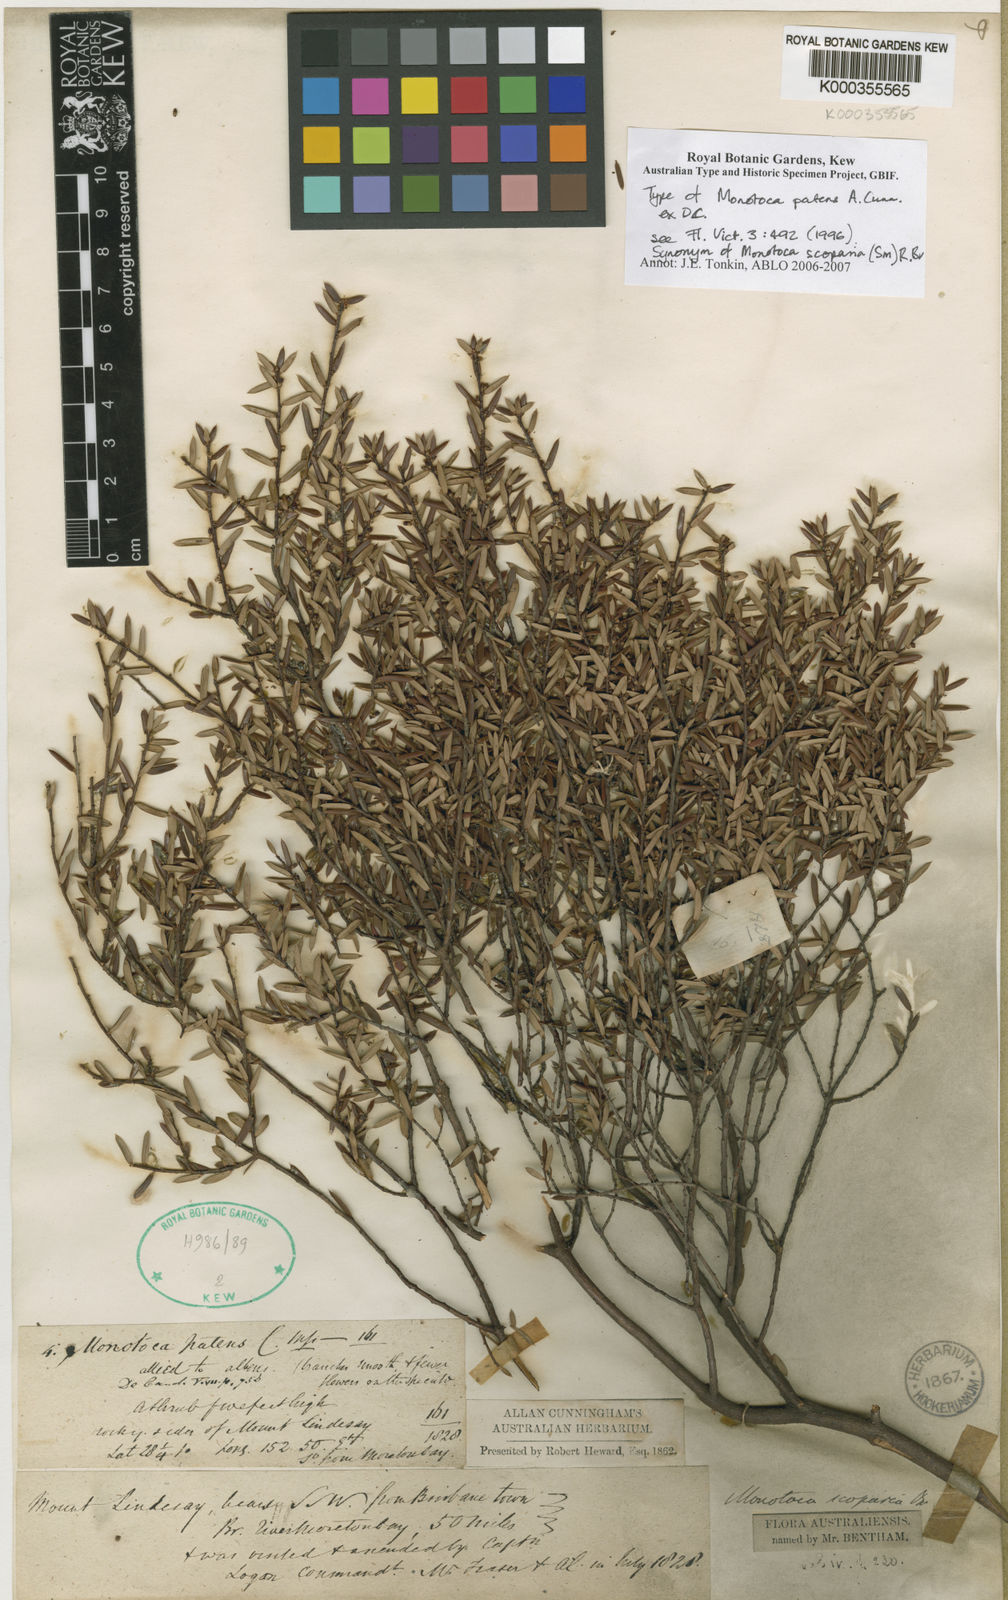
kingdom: Plantae
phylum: Tracheophyta
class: Magnoliopsida
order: Ericales
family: Ericaceae
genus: Monotoca
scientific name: Monotoca scoparia
